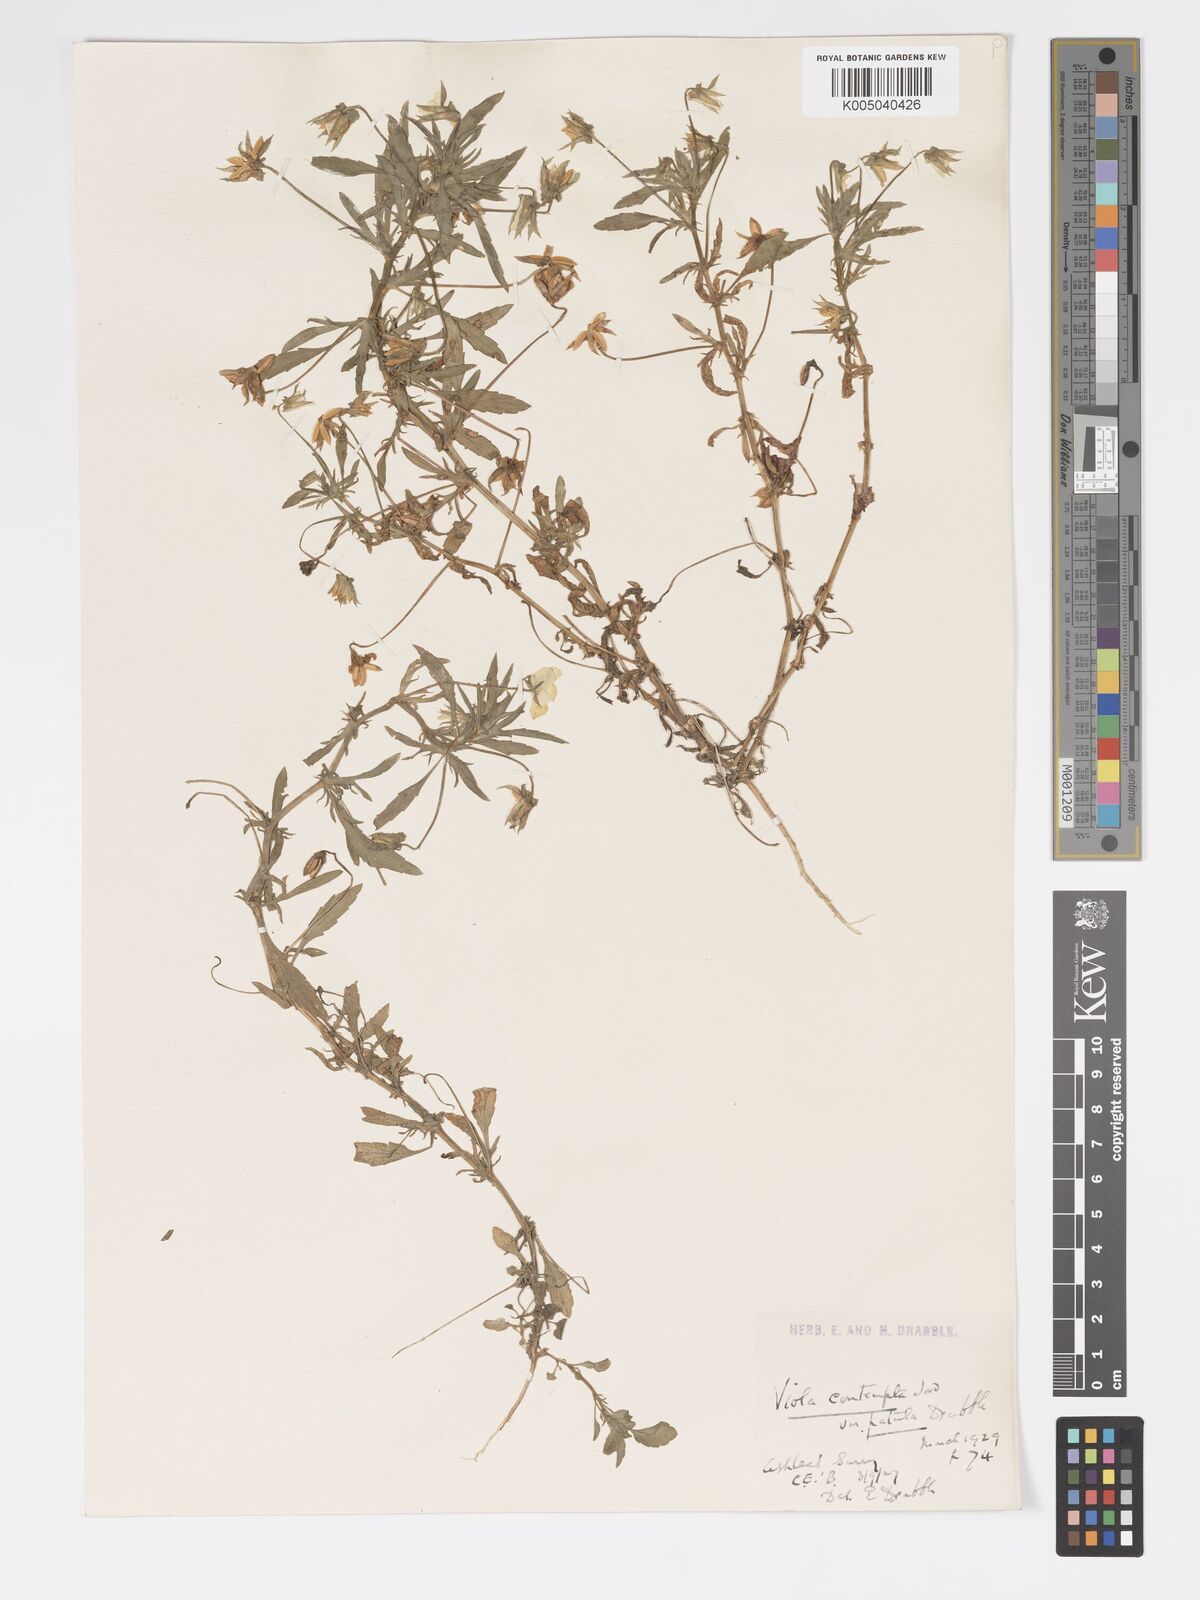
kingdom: Plantae
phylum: Tracheophyta
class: Magnoliopsida
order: Malpighiales
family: Violaceae
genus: Viola
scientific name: Viola arvensis
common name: Field pansy
